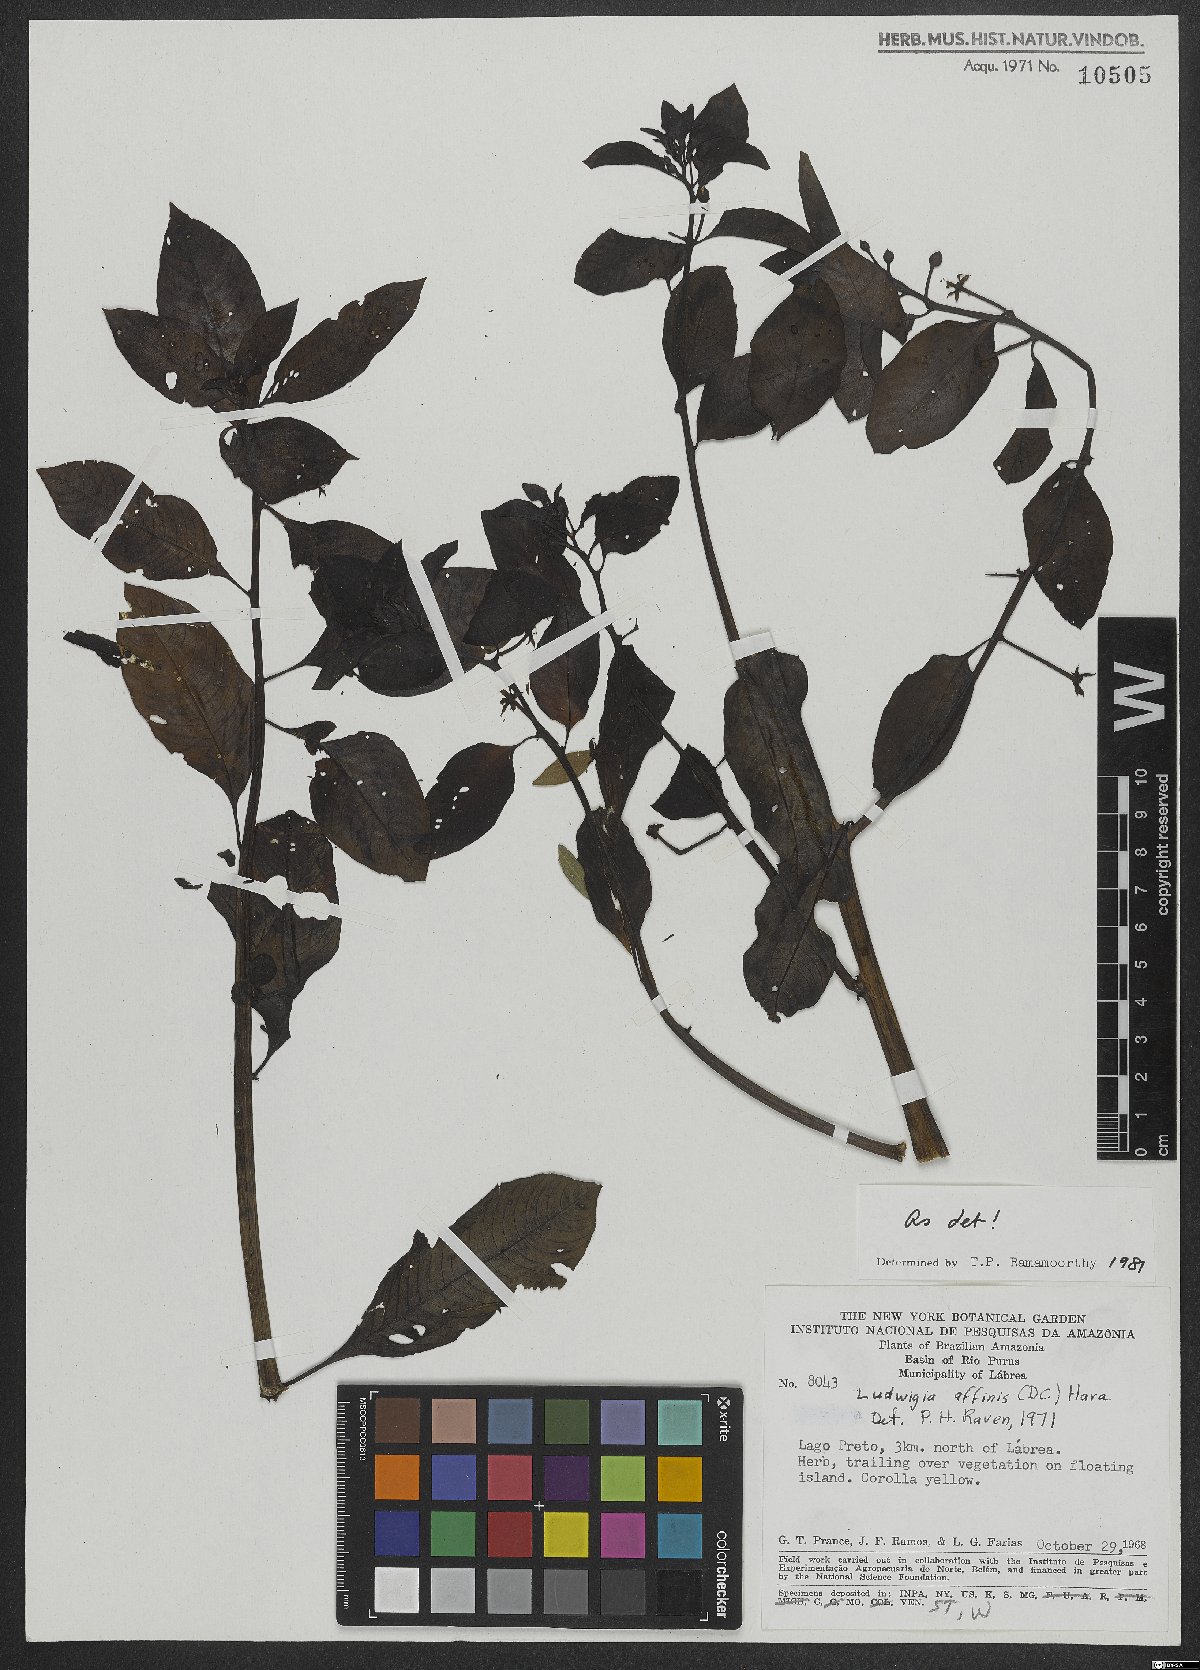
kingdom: Plantae
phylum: Tracheophyta
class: Magnoliopsida
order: Myrtales
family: Onagraceae
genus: Ludwigia
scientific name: Ludwigia affinis
